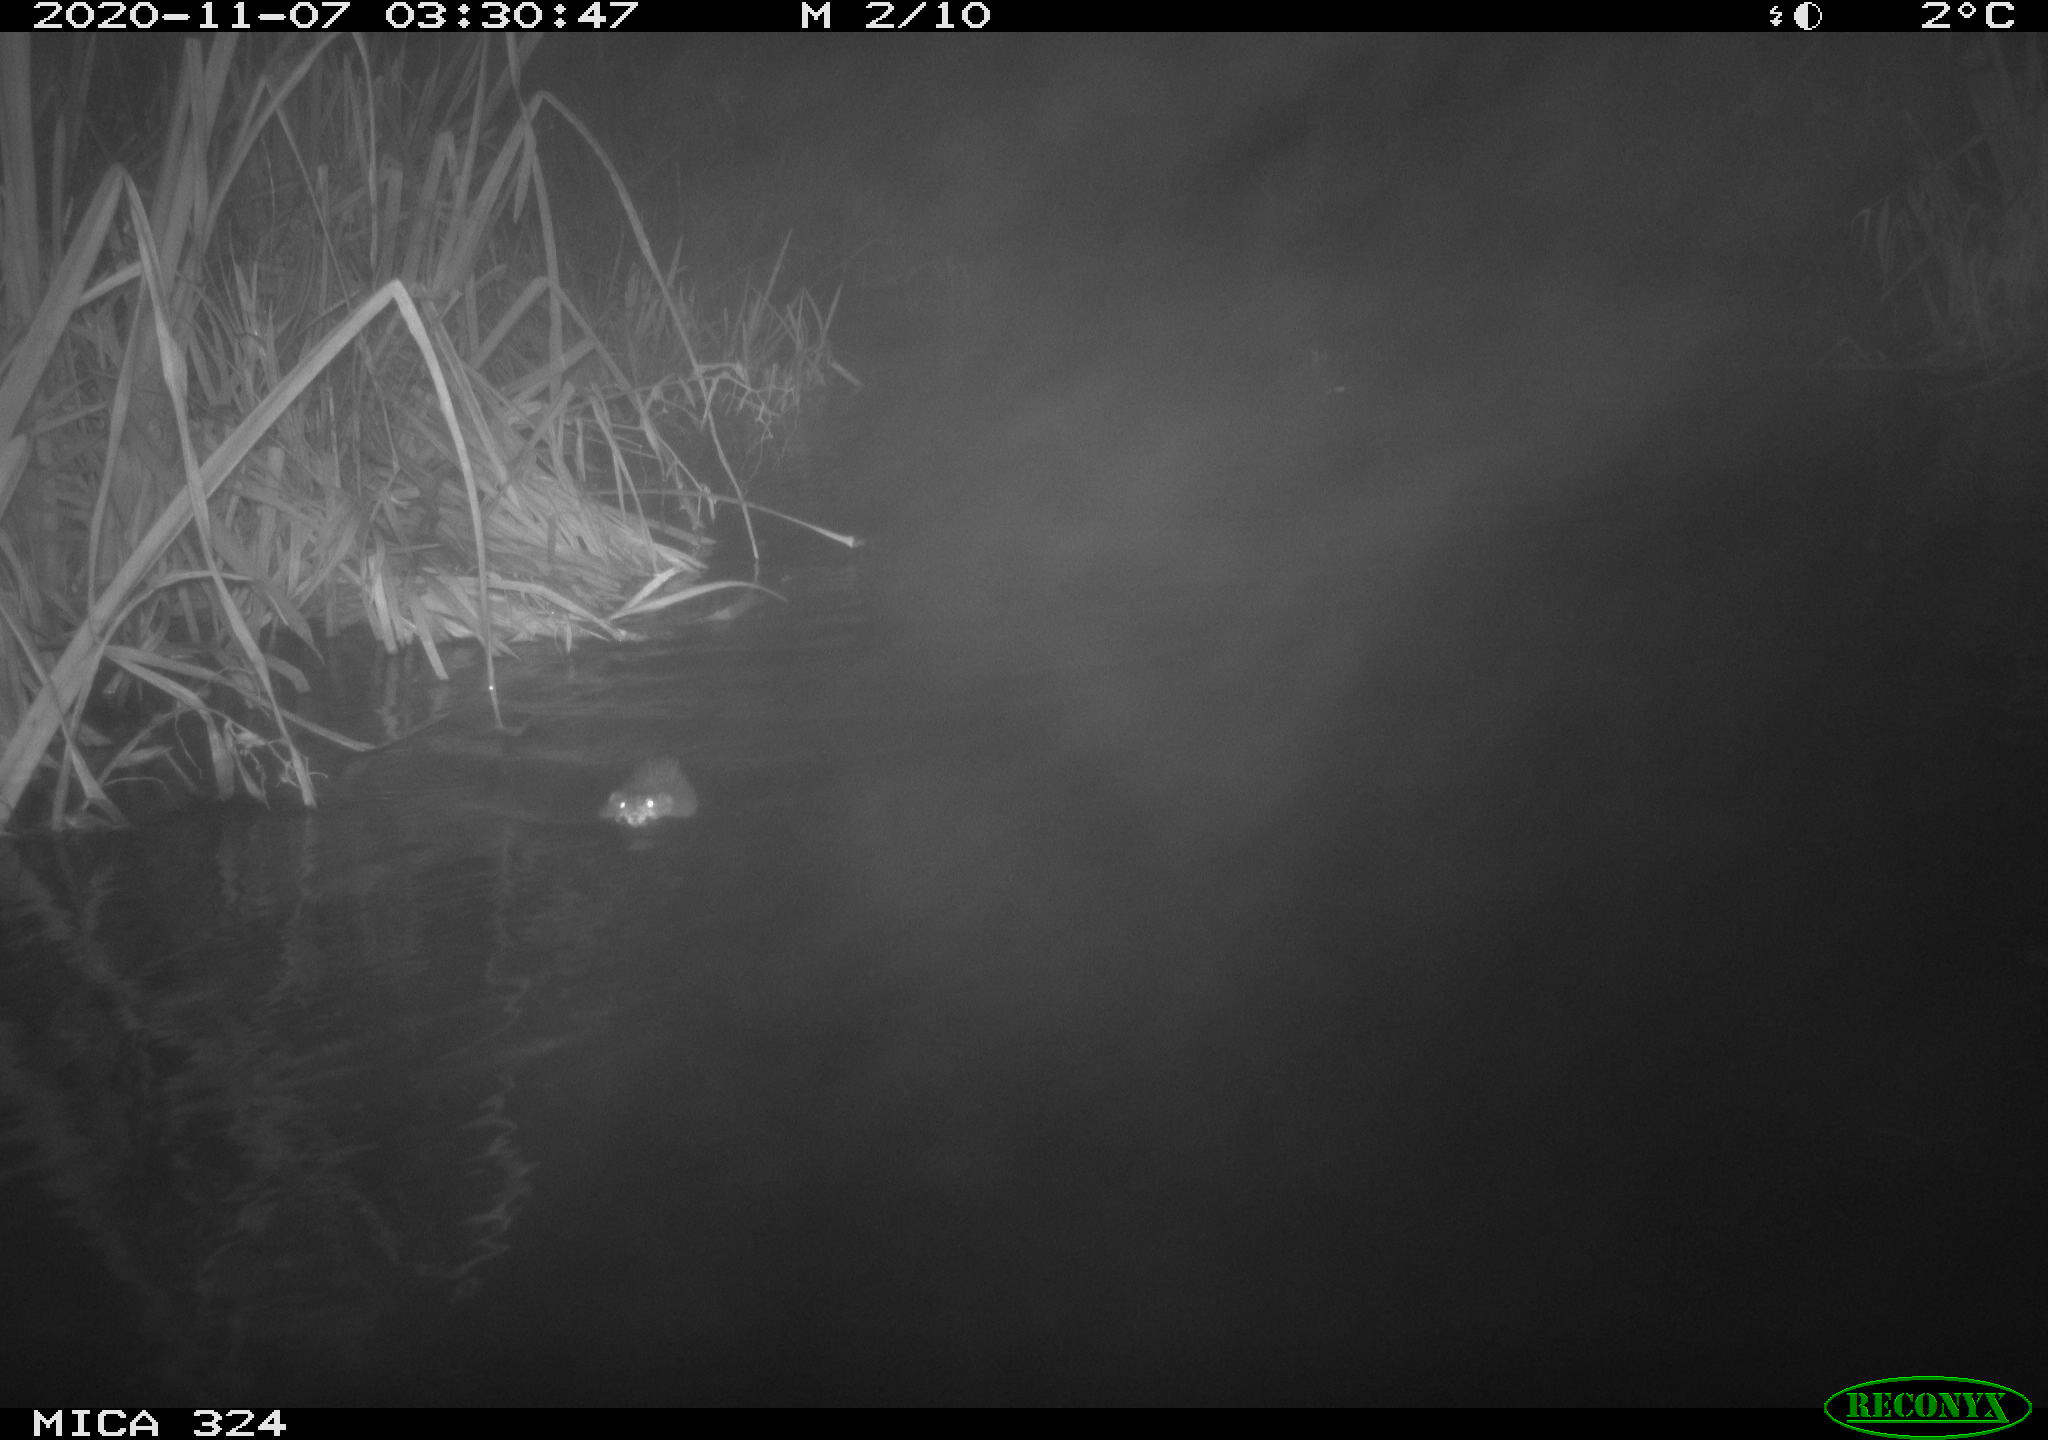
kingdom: Animalia
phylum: Chordata
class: Mammalia
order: Rodentia
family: Cricetidae
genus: Ondatra
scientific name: Ondatra zibethicus
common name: Muskrat
